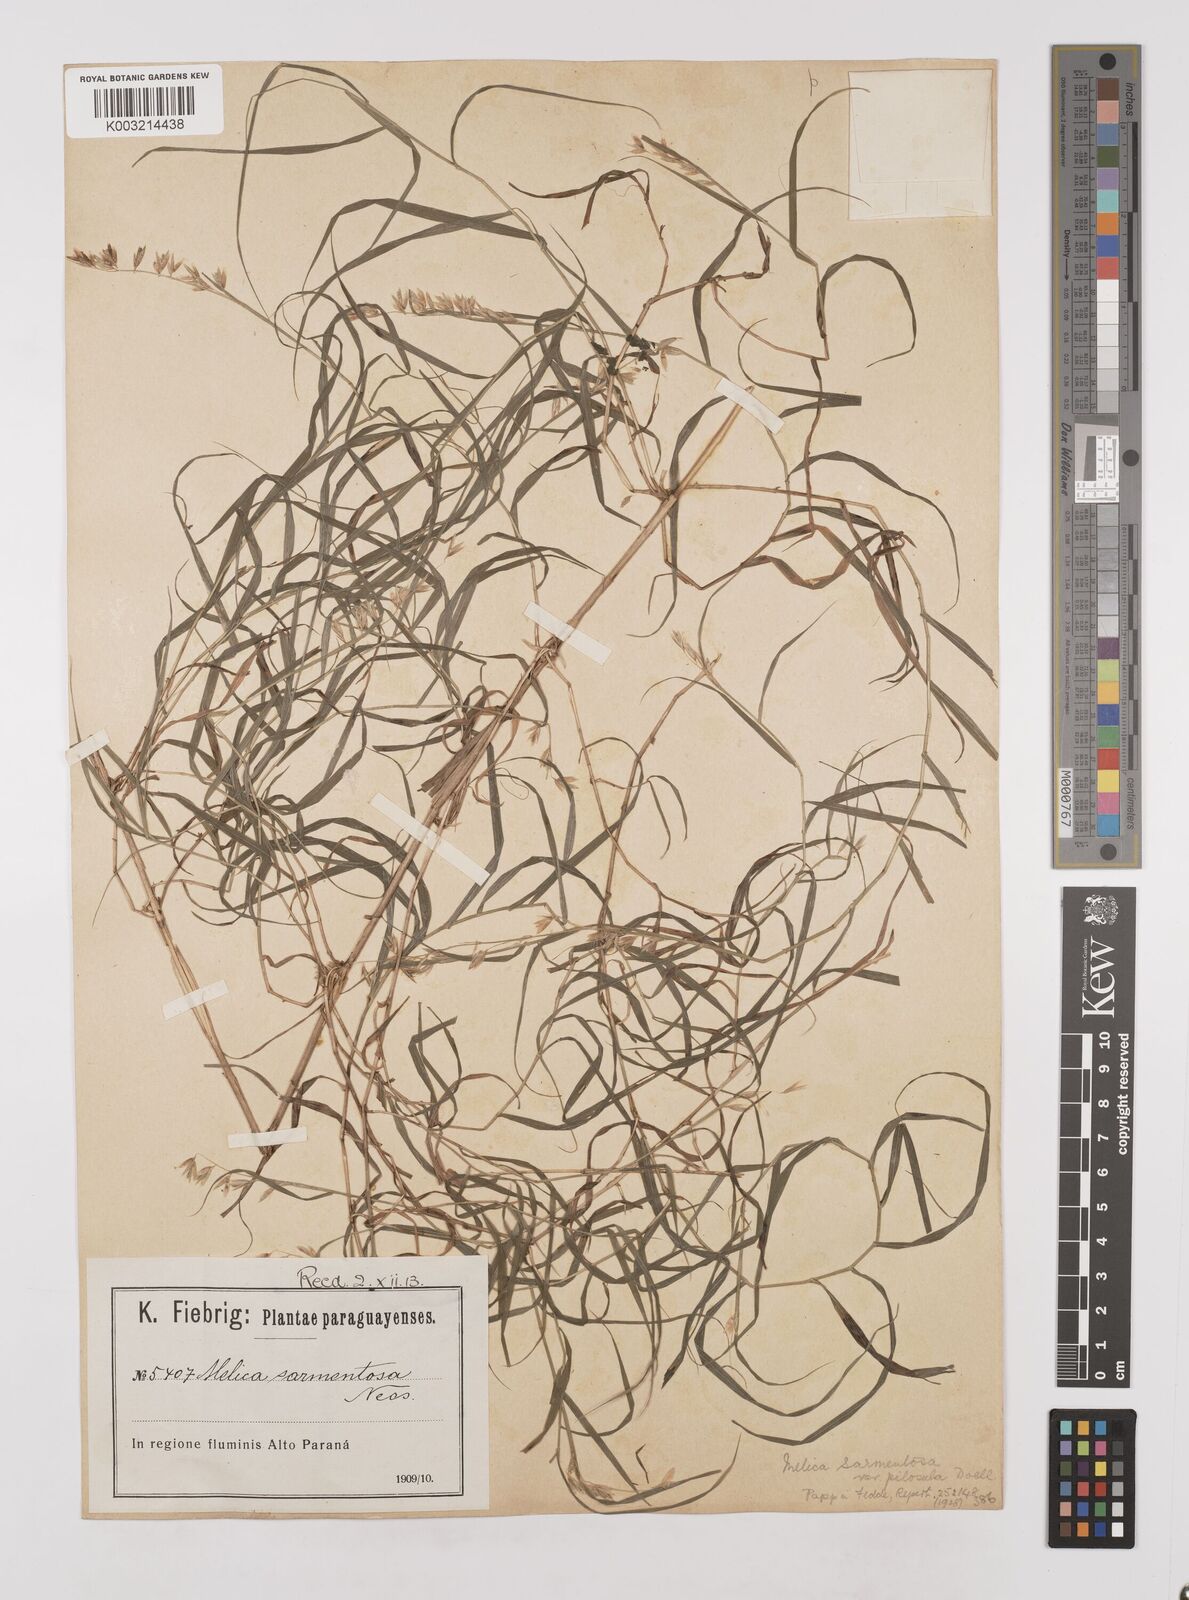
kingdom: Plantae
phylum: Tracheophyta
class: Liliopsida
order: Poales
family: Poaceae
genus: Melica
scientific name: Melica sarmentosa
